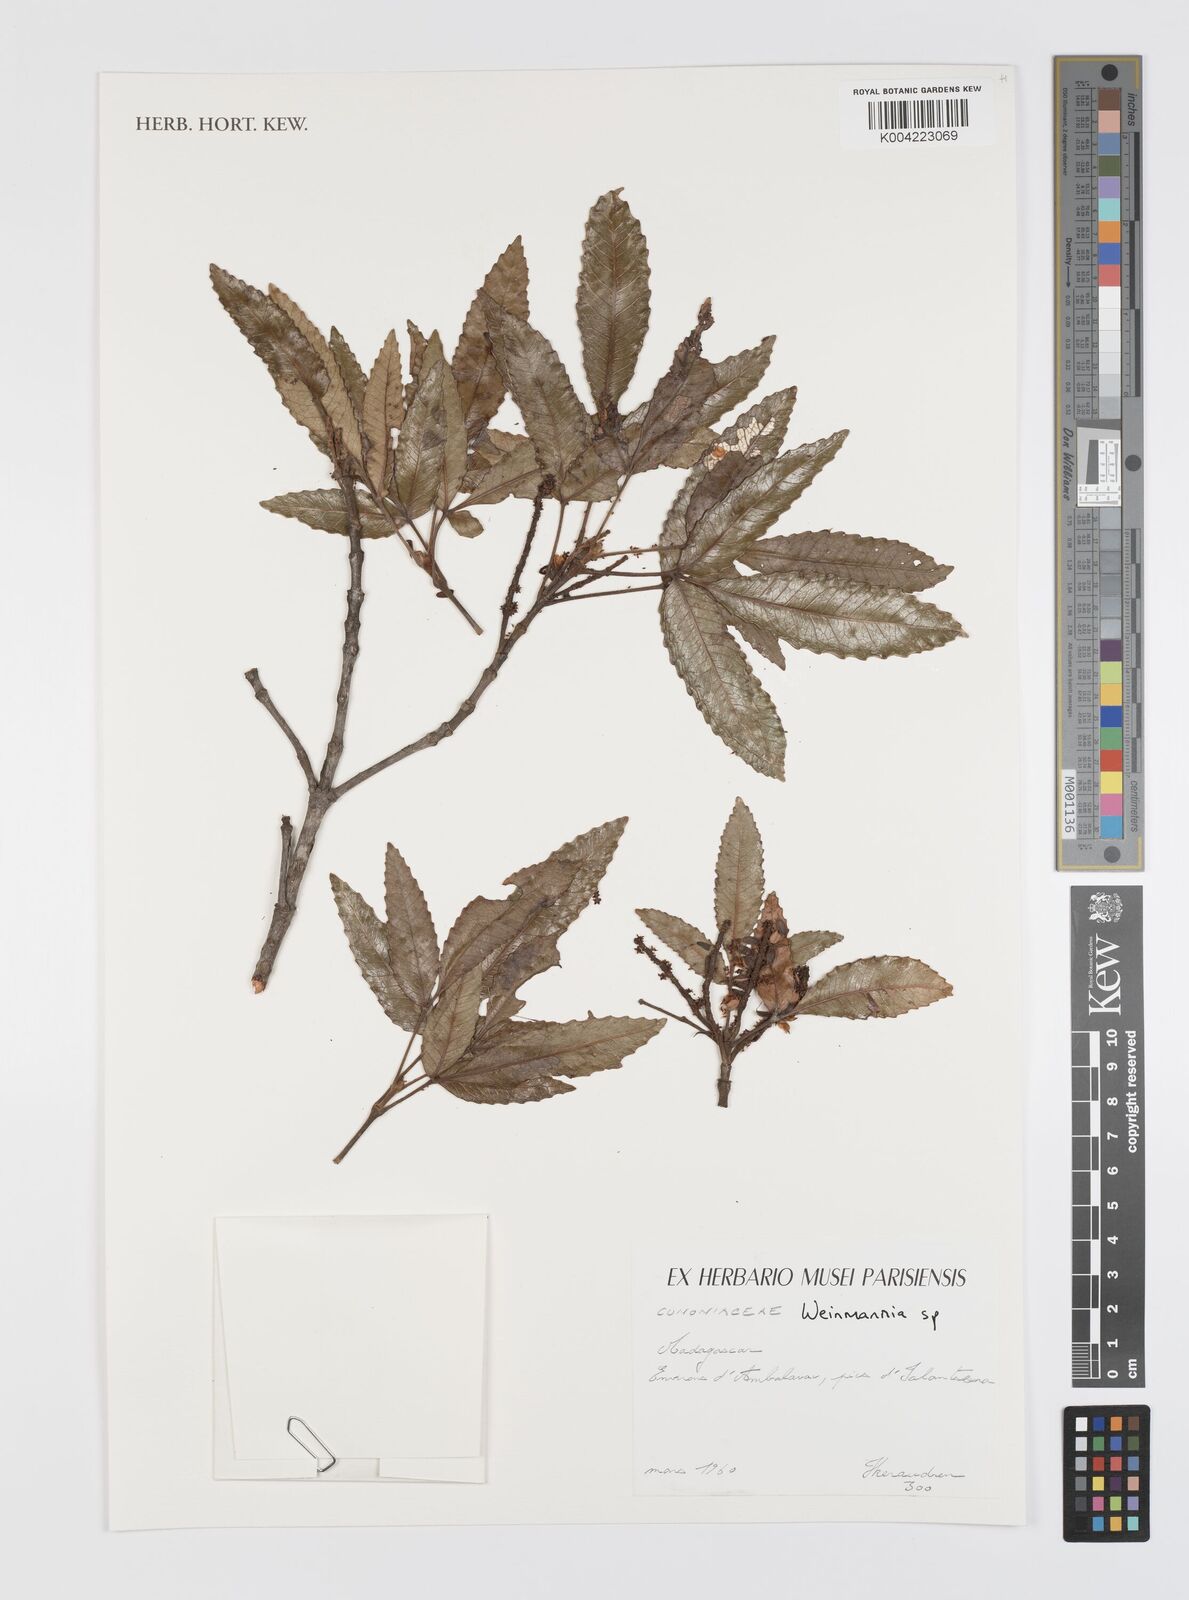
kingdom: Plantae
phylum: Tracheophyta
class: Magnoliopsida
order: Oxalidales
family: Cunoniaceae
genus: Weinmannia
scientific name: Weinmannia
